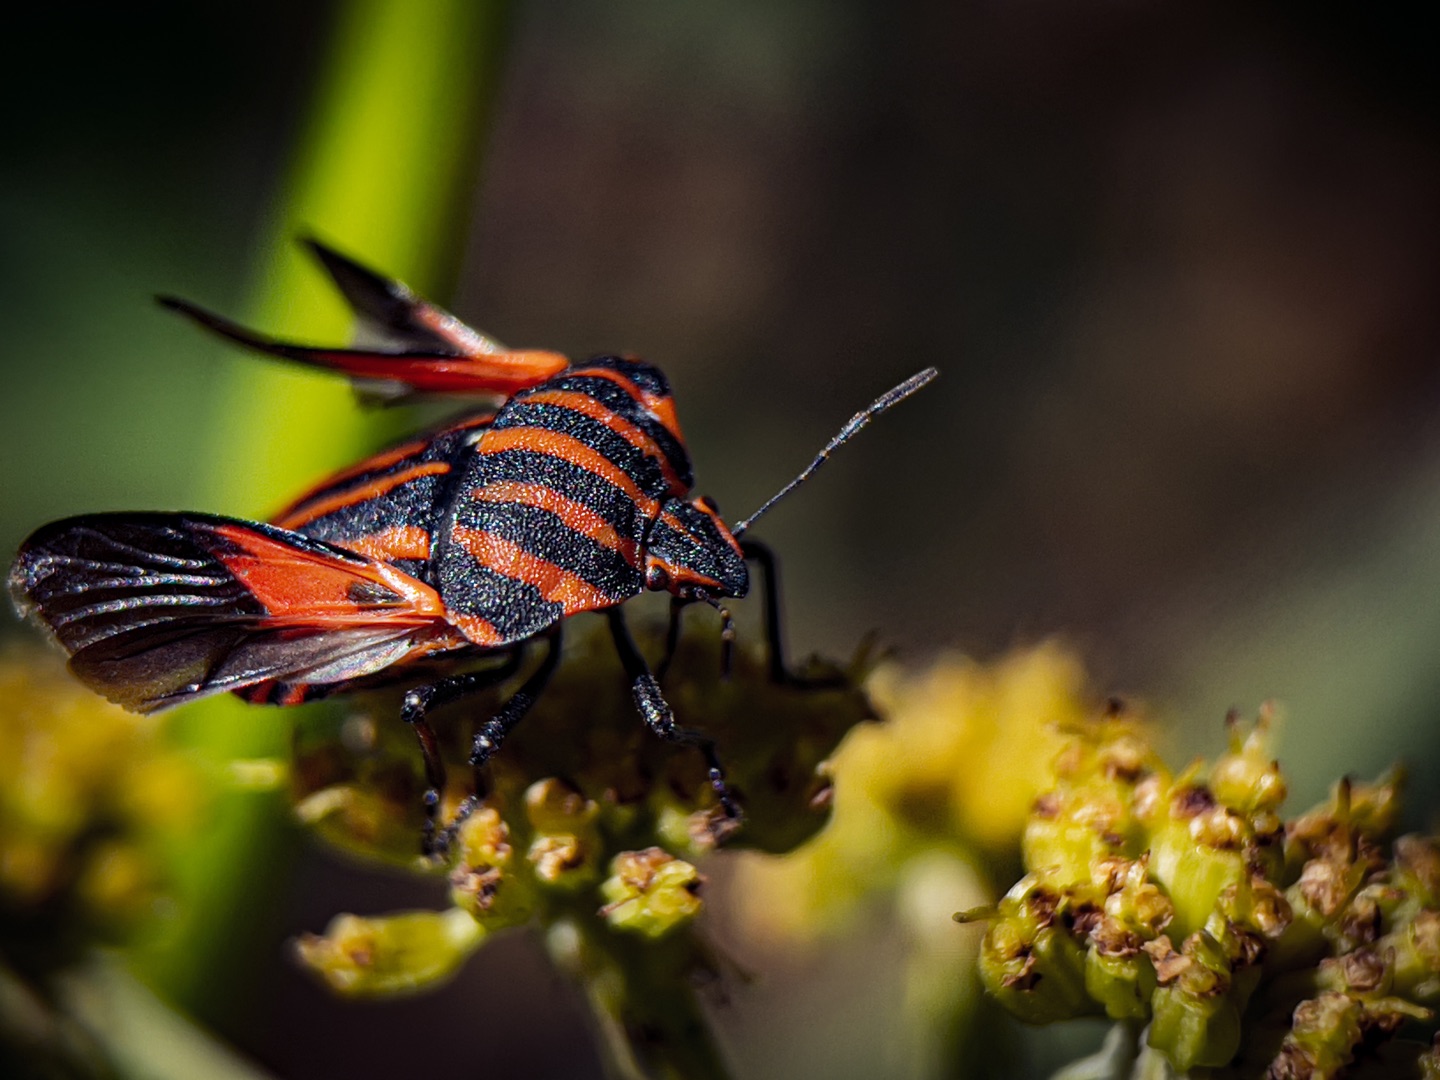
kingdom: Animalia
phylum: Arthropoda
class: Insecta
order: Hemiptera
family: Pentatomidae
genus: Graphosoma
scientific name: Graphosoma italicum
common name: Stribetæge
